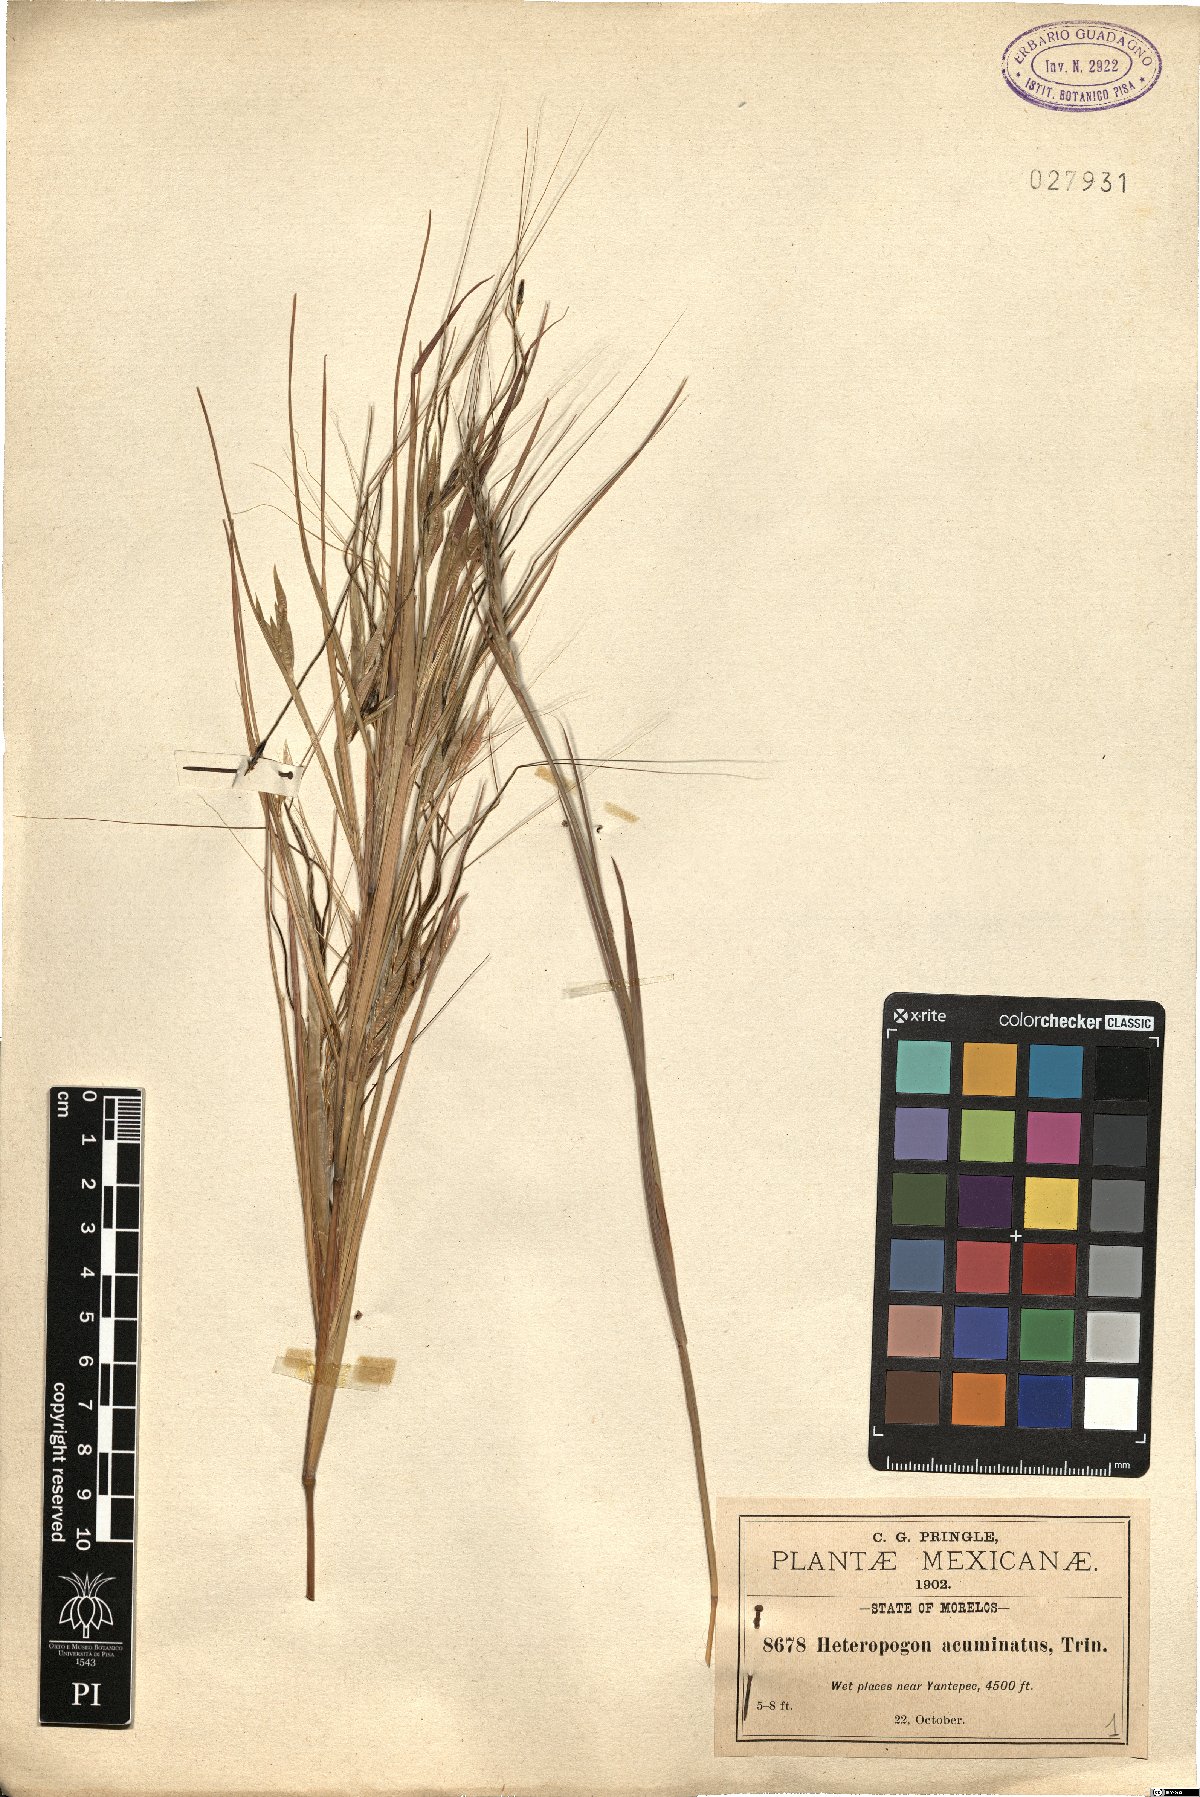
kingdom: Plantae
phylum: Tracheophyta
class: Liliopsida
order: Poales
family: Poaceae
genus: Heteropogon
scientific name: Heteropogon melanocarpus
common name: Sweet tanglehead
